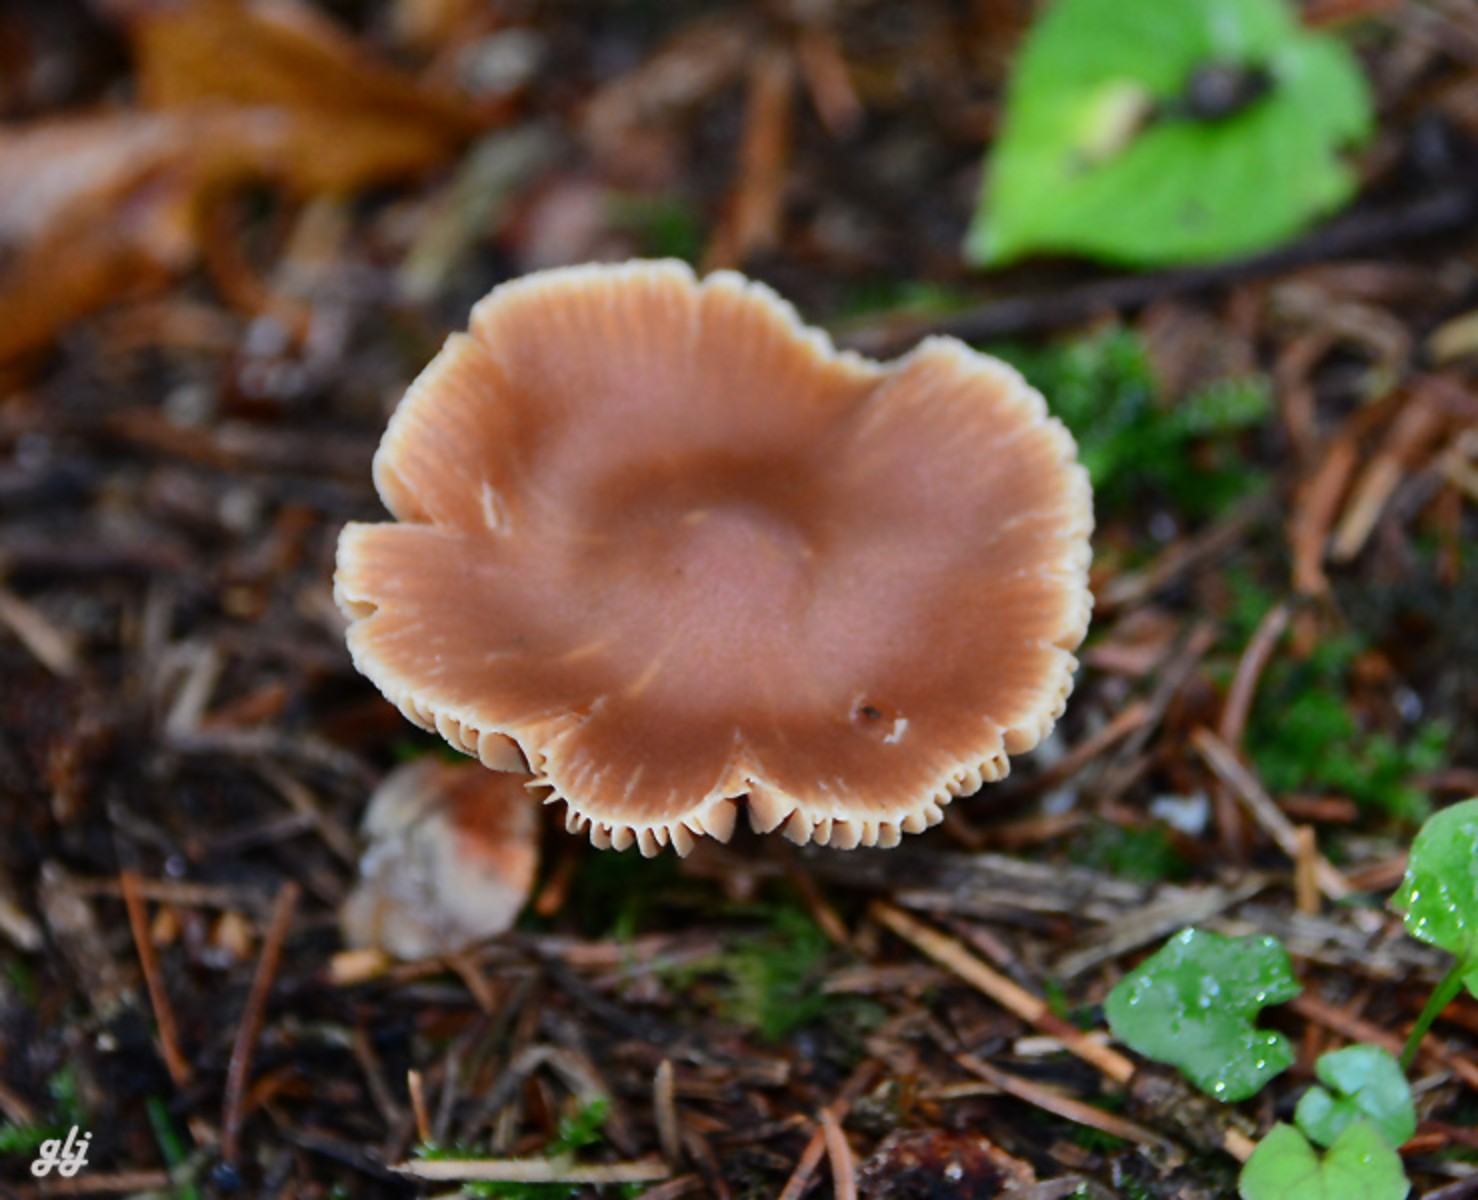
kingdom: Fungi
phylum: Basidiomycota
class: Agaricomycetes
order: Agaricales
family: Cortinariaceae
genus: Cortinarius
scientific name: Cortinarius
